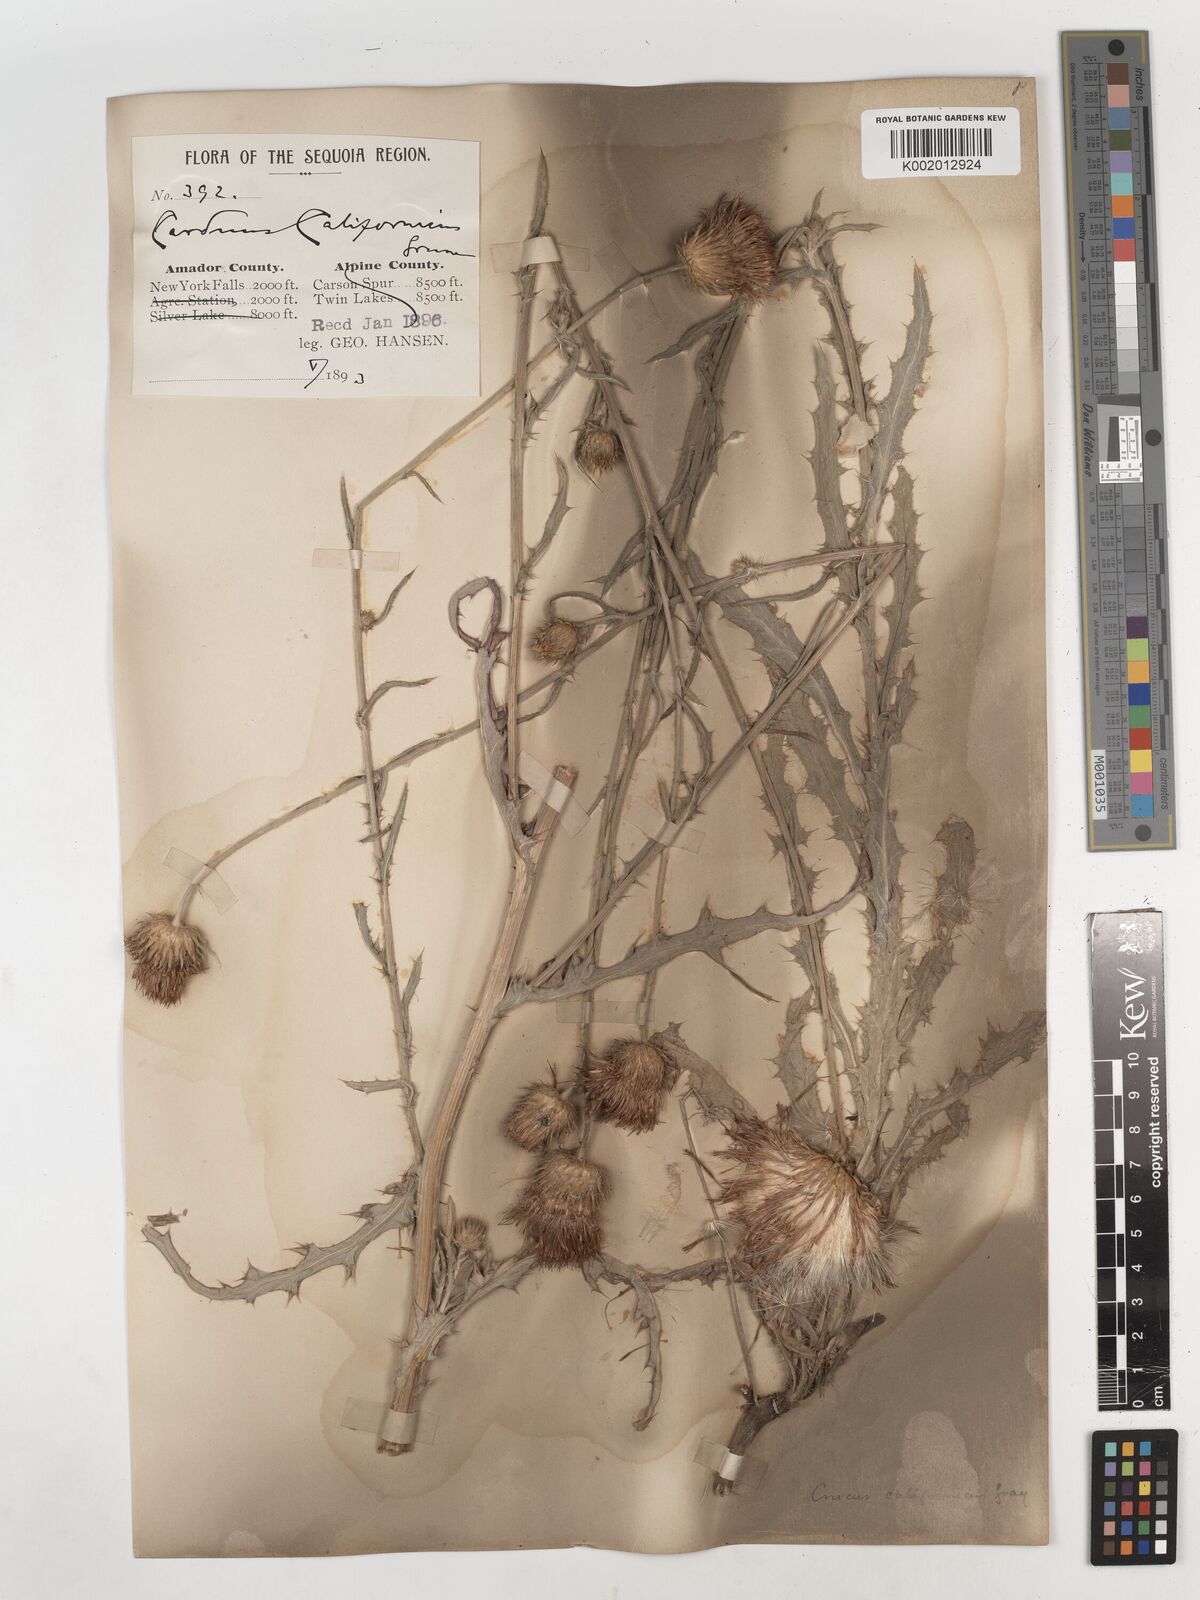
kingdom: Plantae
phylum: Tracheophyta
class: Magnoliopsida
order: Asterales
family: Asteraceae
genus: Cirsium
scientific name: Cirsium occidentale
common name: Western thistle
